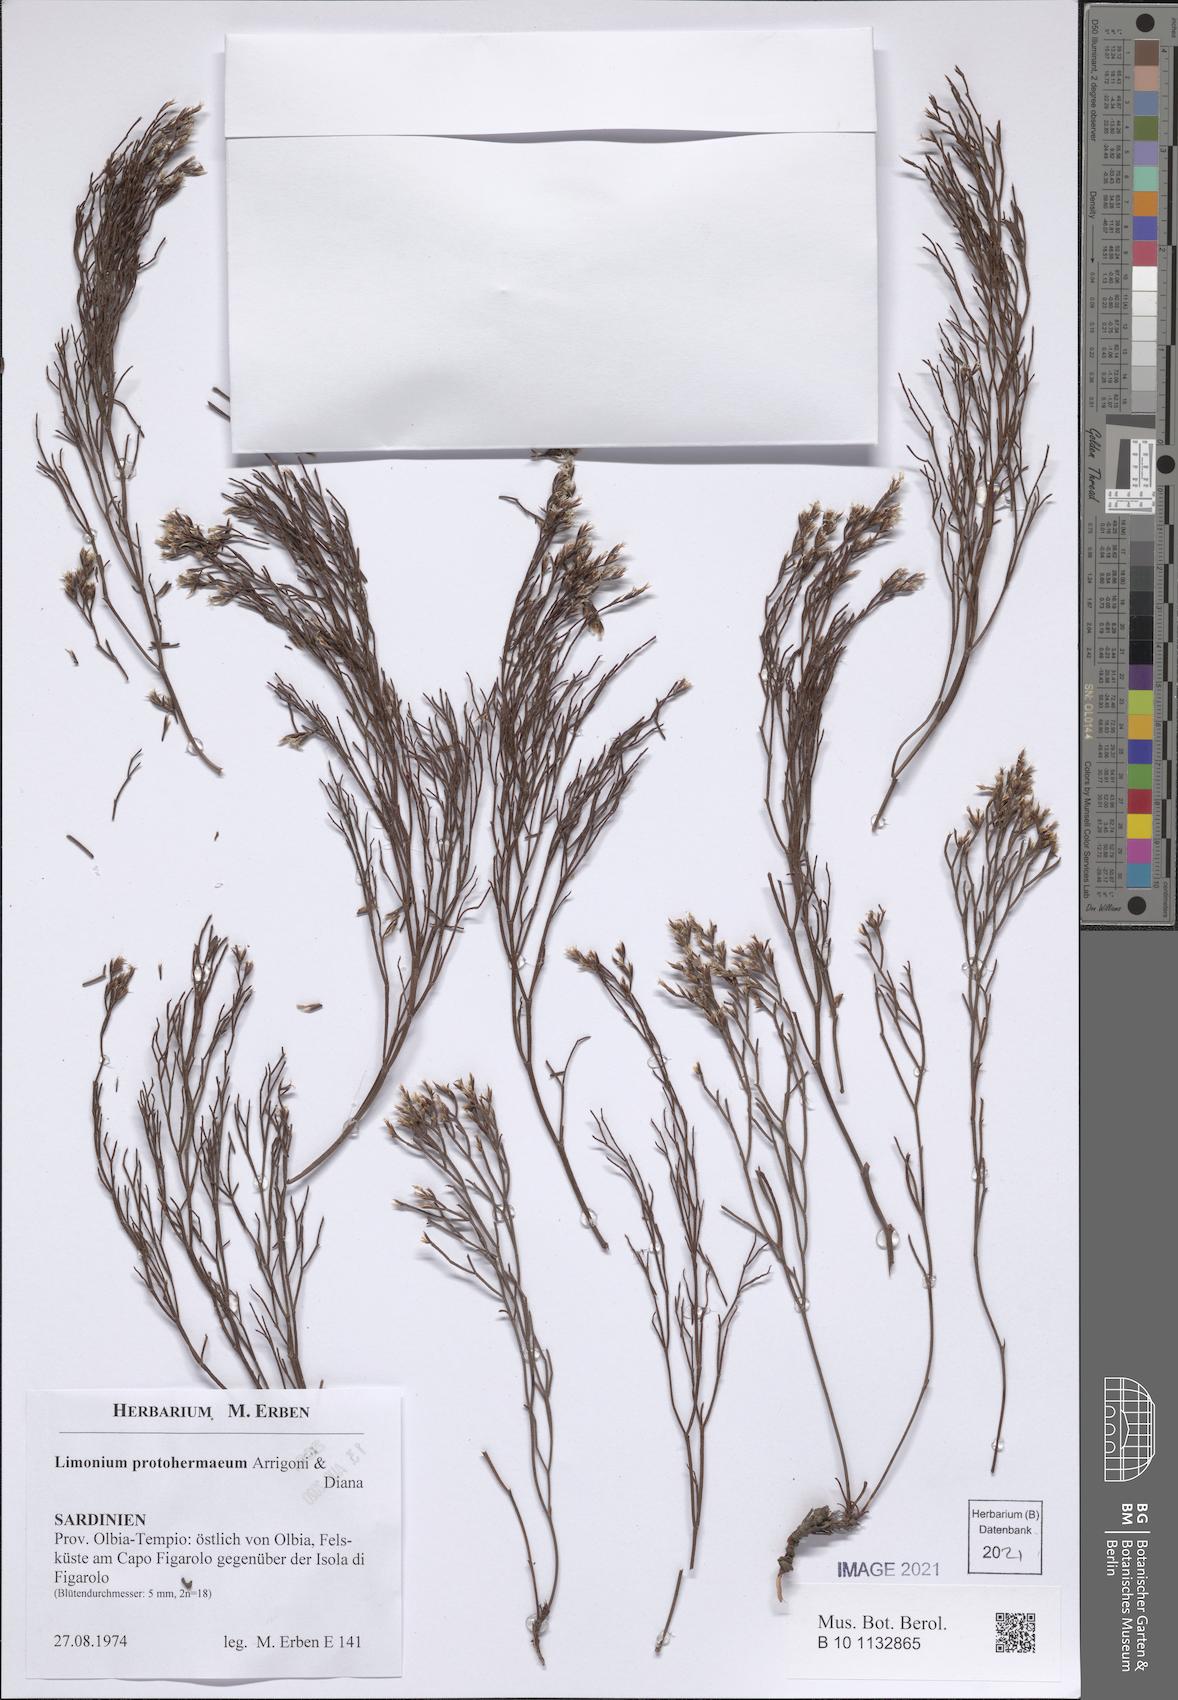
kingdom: Plantae
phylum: Tracheophyta
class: Magnoliopsida
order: Caryophyllales
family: Plumbaginaceae
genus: Limonium
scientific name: Limonium protohermaeum
